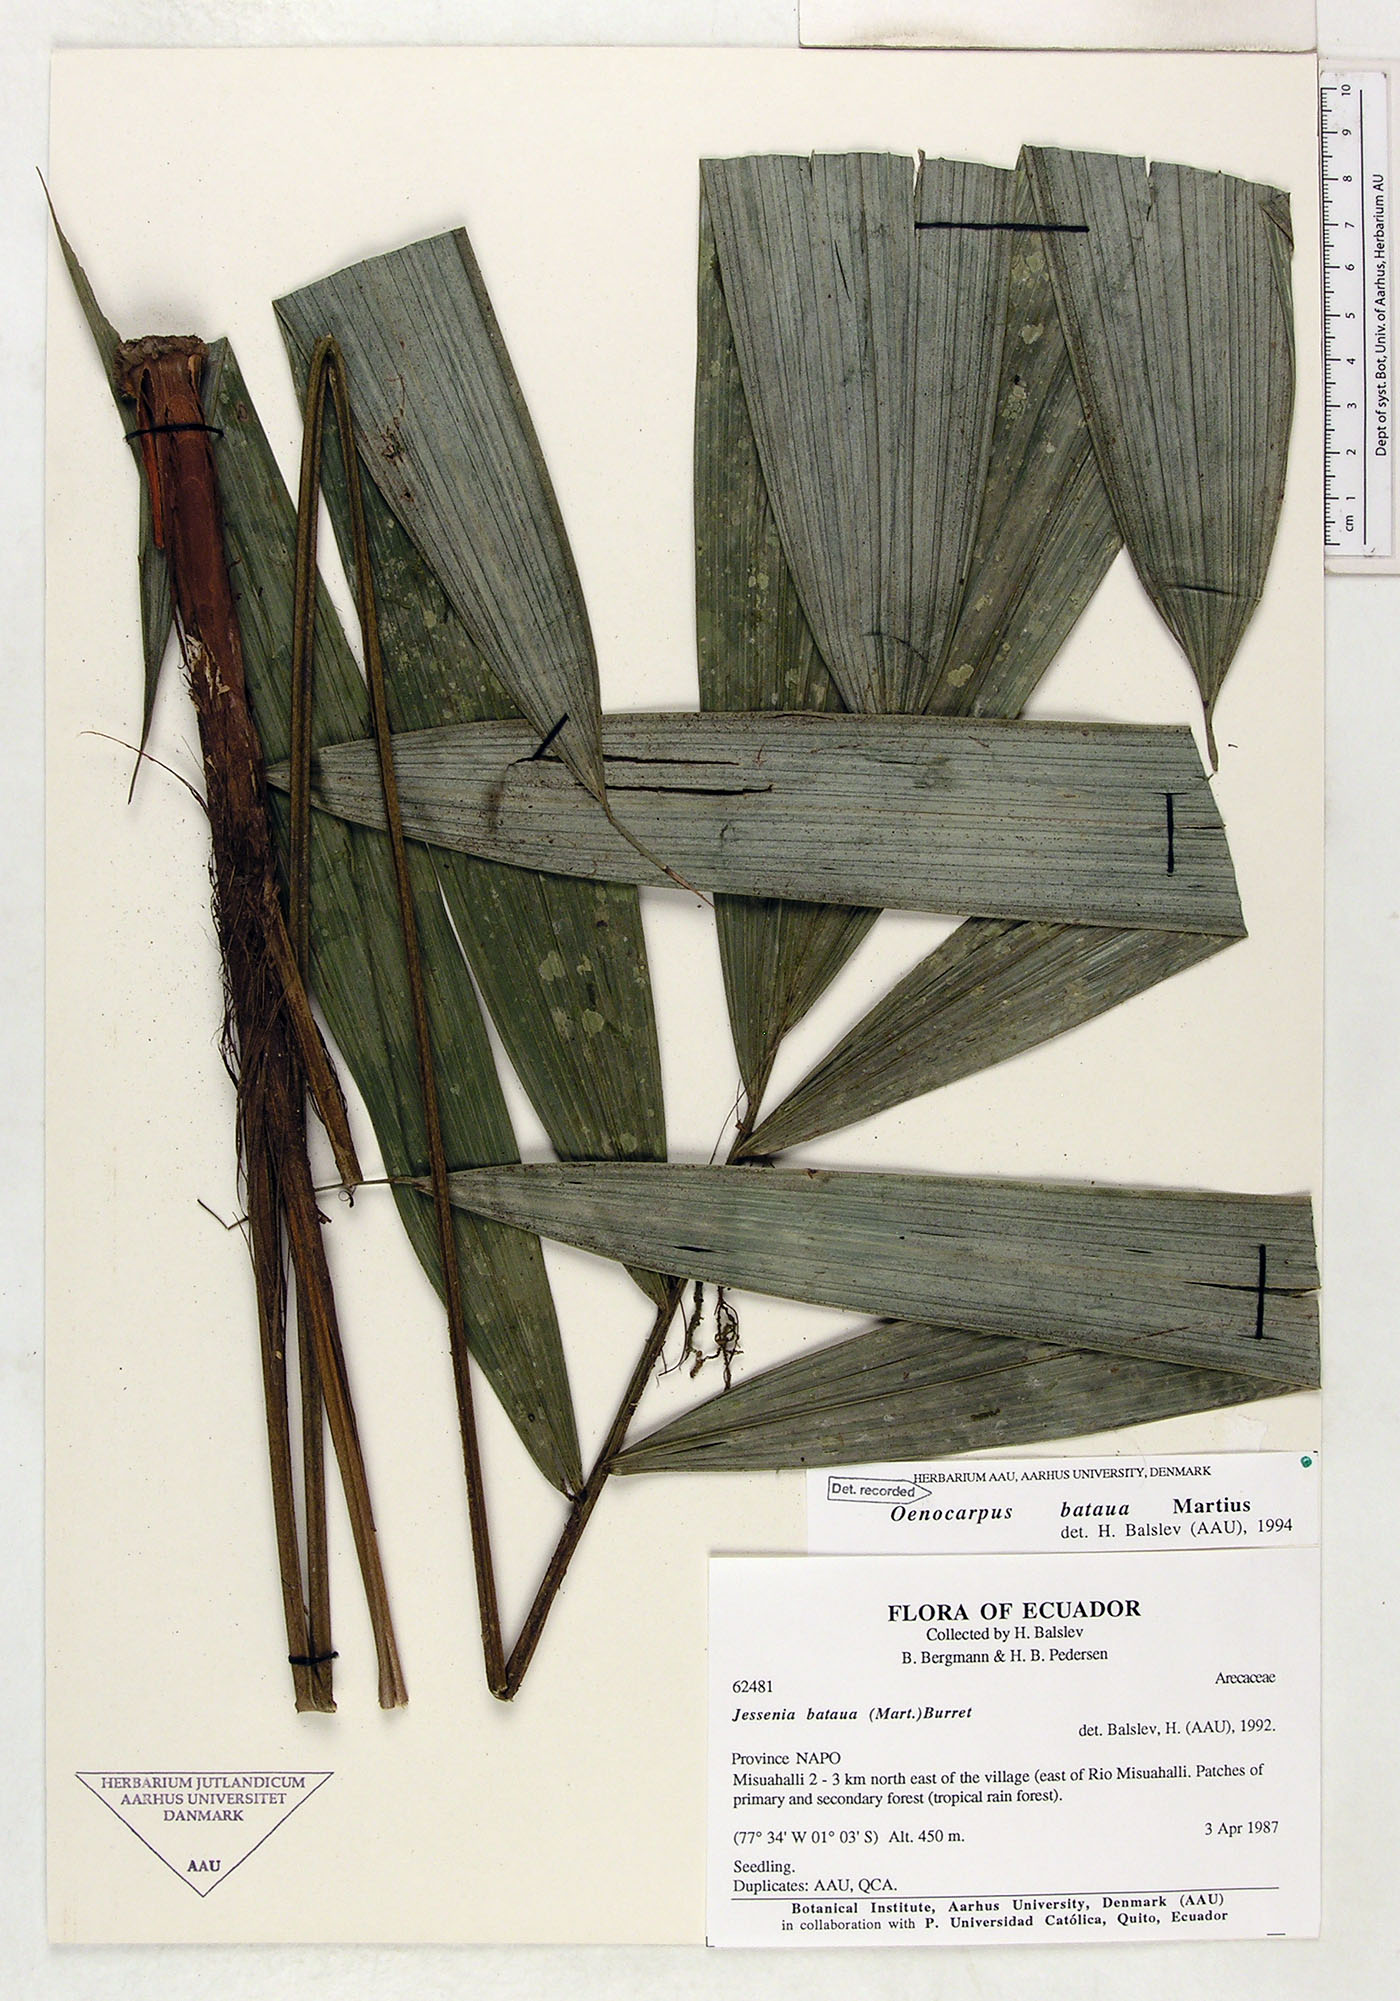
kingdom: Plantae
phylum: Tracheophyta
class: Liliopsida
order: Arecales
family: Arecaceae
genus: Oenocarpus
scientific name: Oenocarpus bataua
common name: Bataua palm
